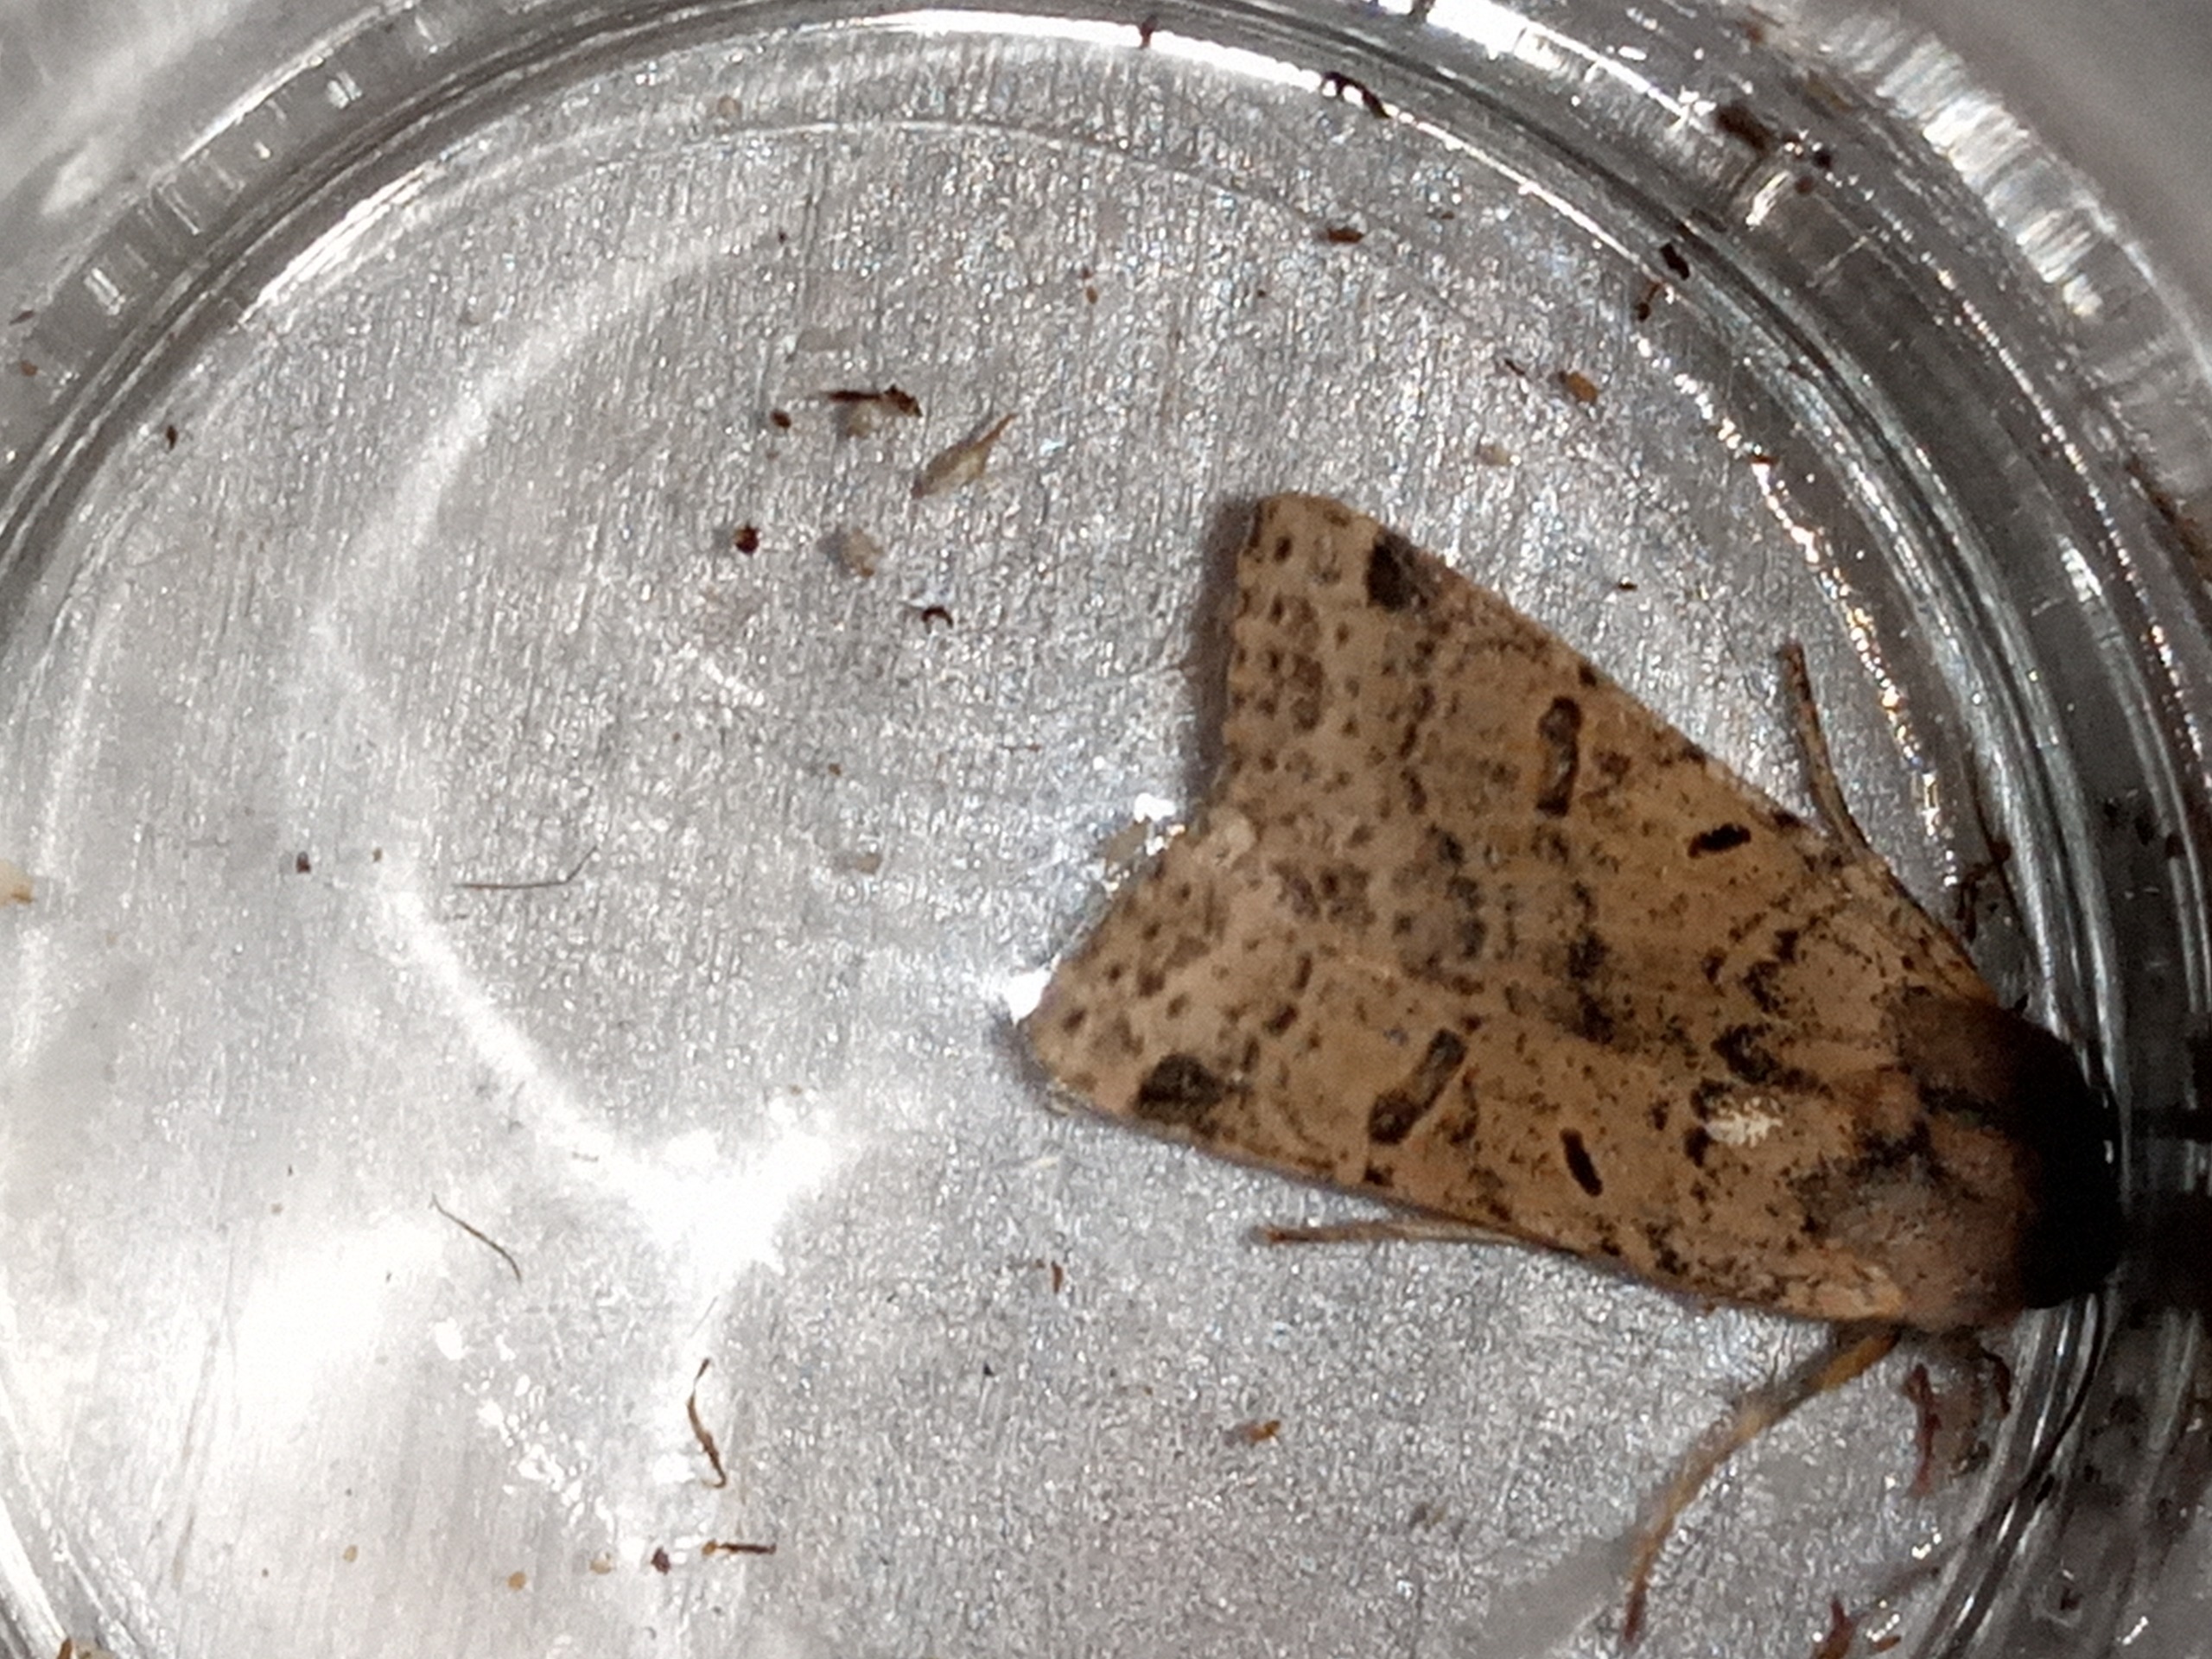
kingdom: Animalia
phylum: Arthropoda
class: Insecta
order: Lepidoptera
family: Noctuidae
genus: Agrochola
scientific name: Agrochola lychnidis
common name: Foranderlig jordfarveugle
